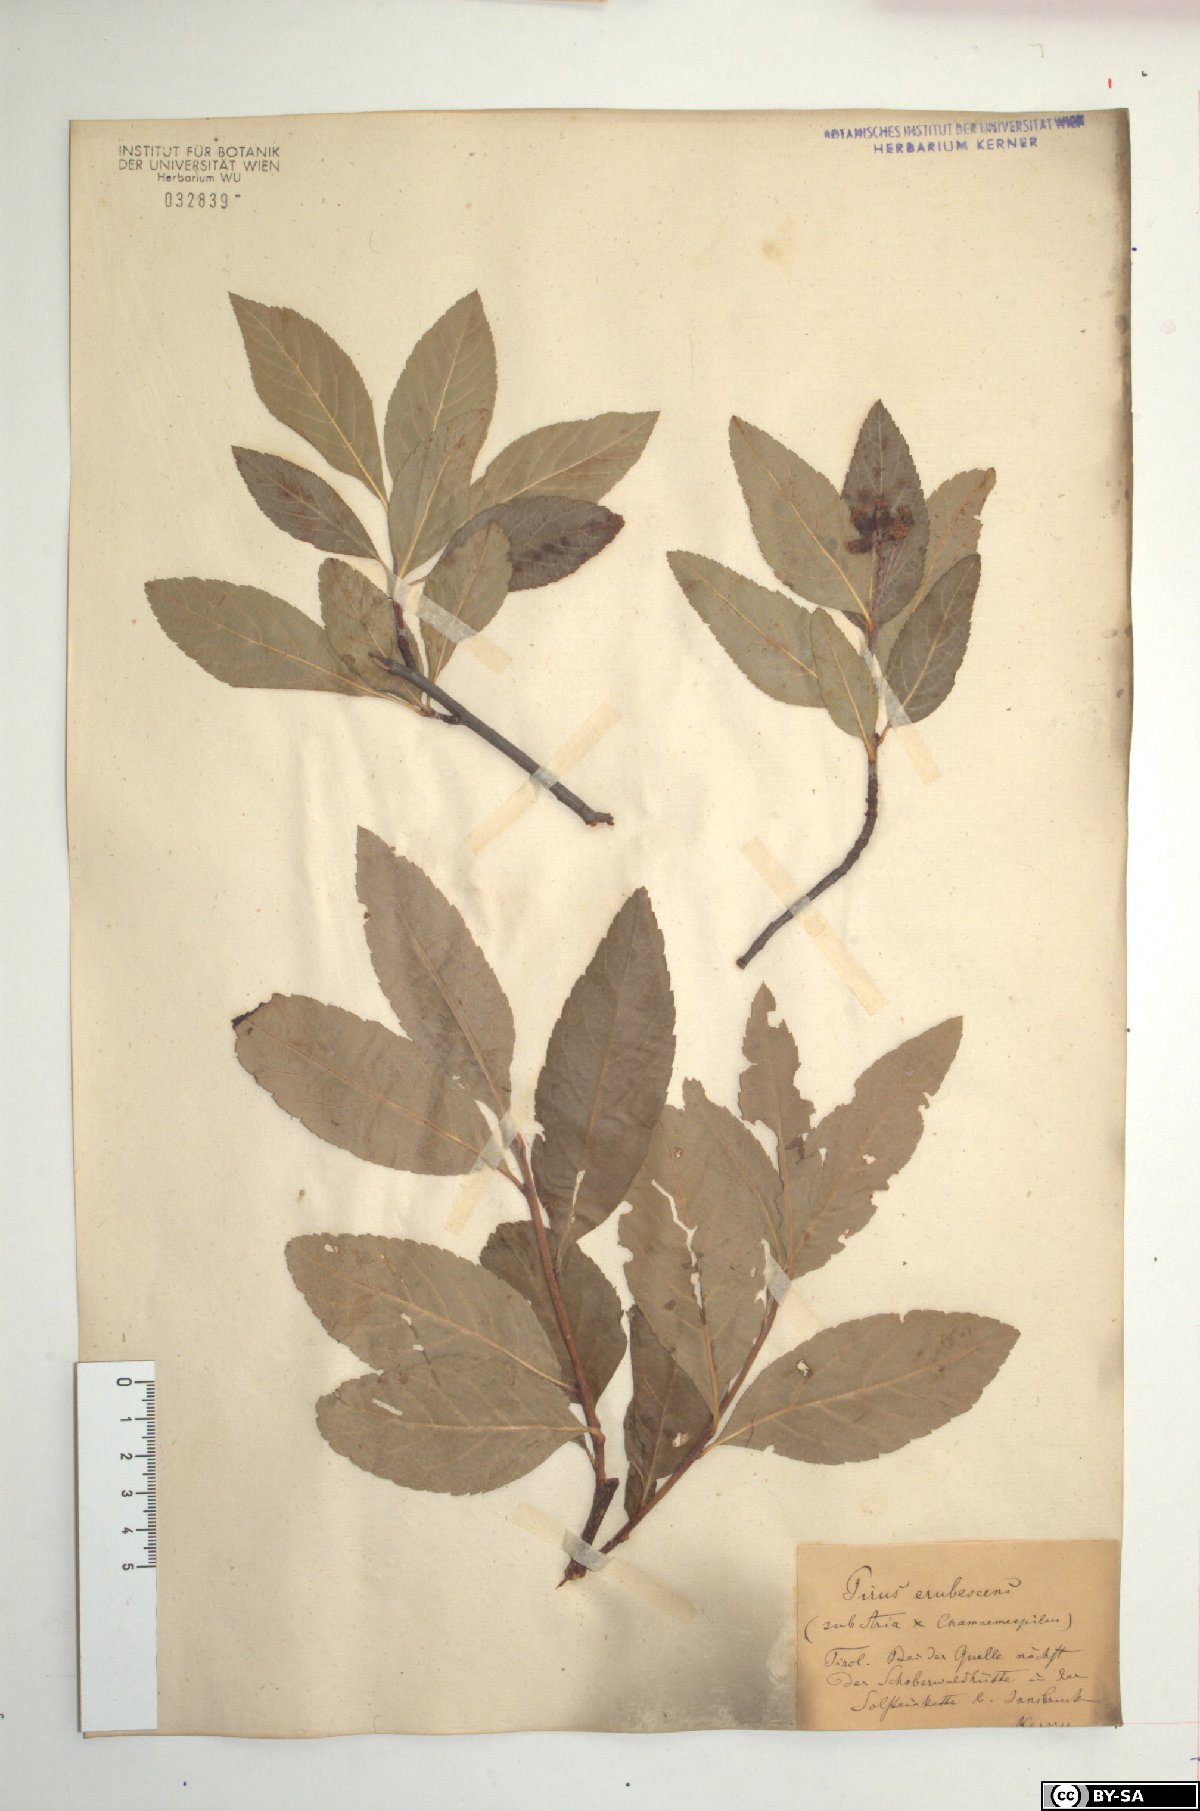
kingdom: Plantae
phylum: Tracheophyta
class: Magnoliopsida
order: Rosales
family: Rosaceae
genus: Majovskya
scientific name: Majovskya sudetica
